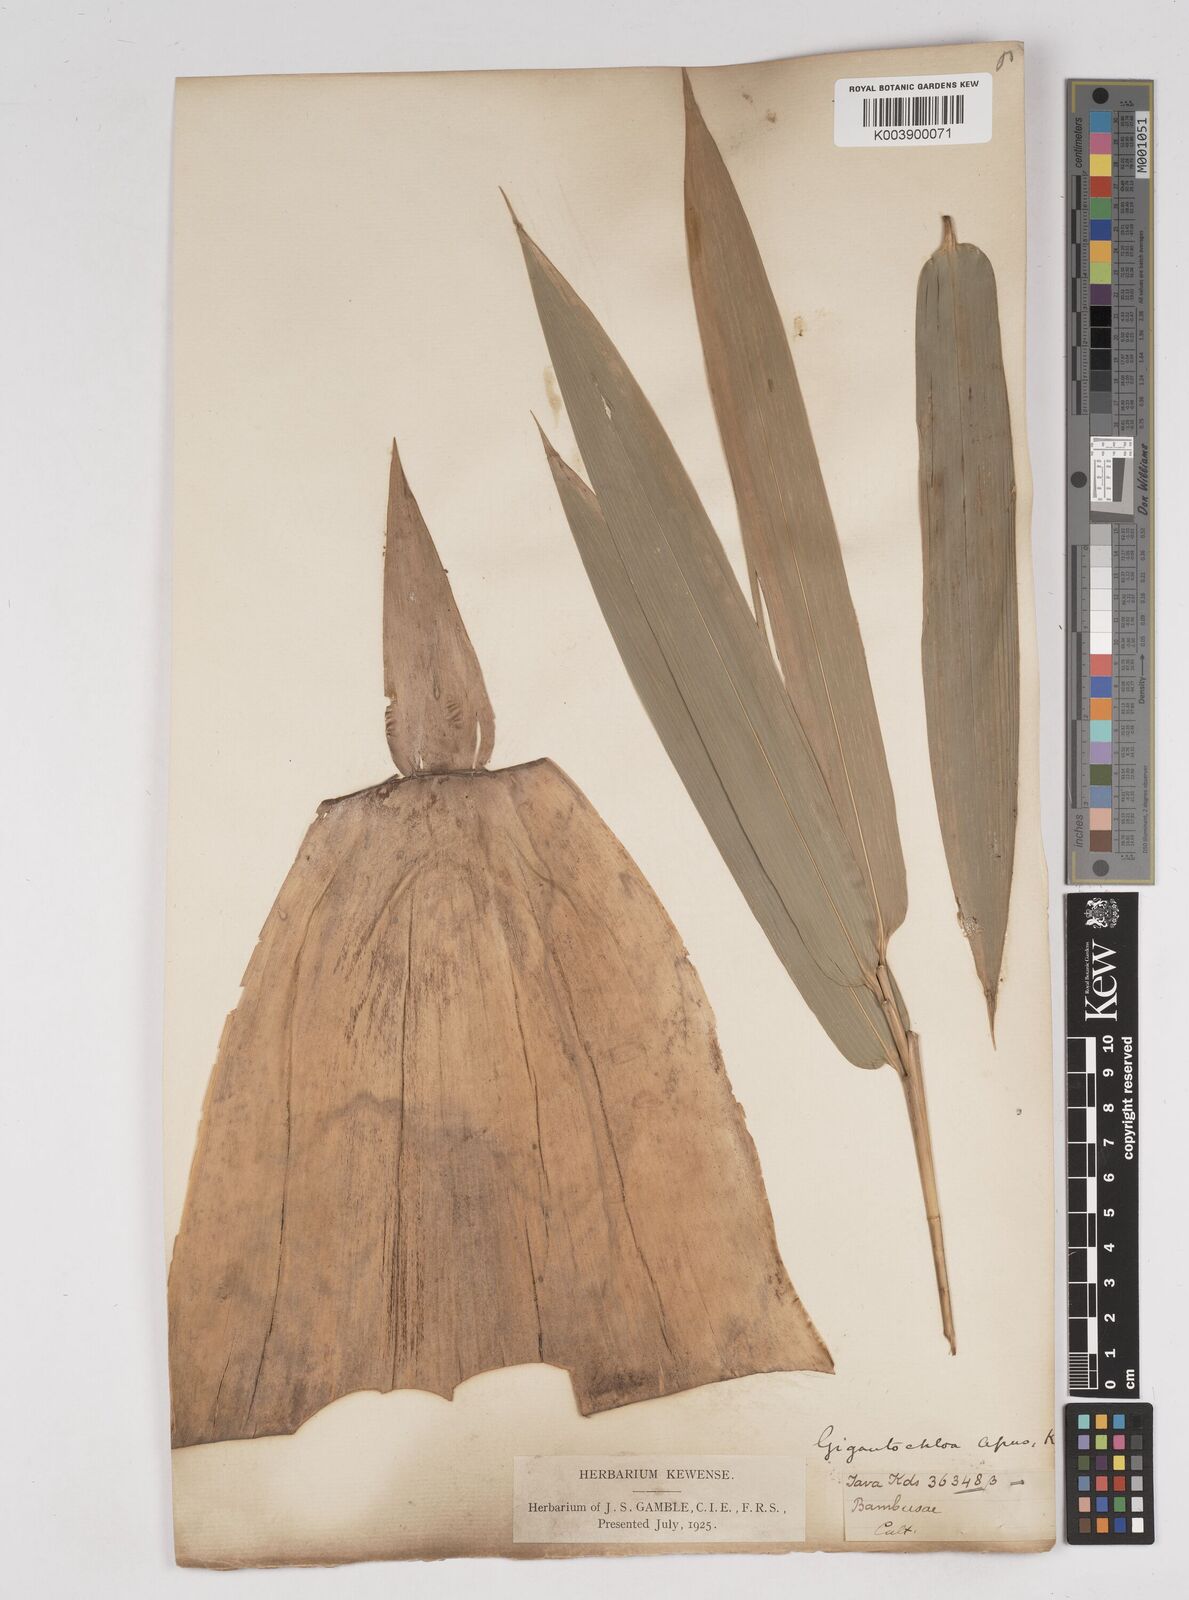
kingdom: Plantae
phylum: Tracheophyta
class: Liliopsida
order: Poales
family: Poaceae
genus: Gigantochloa
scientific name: Gigantochloa apus
